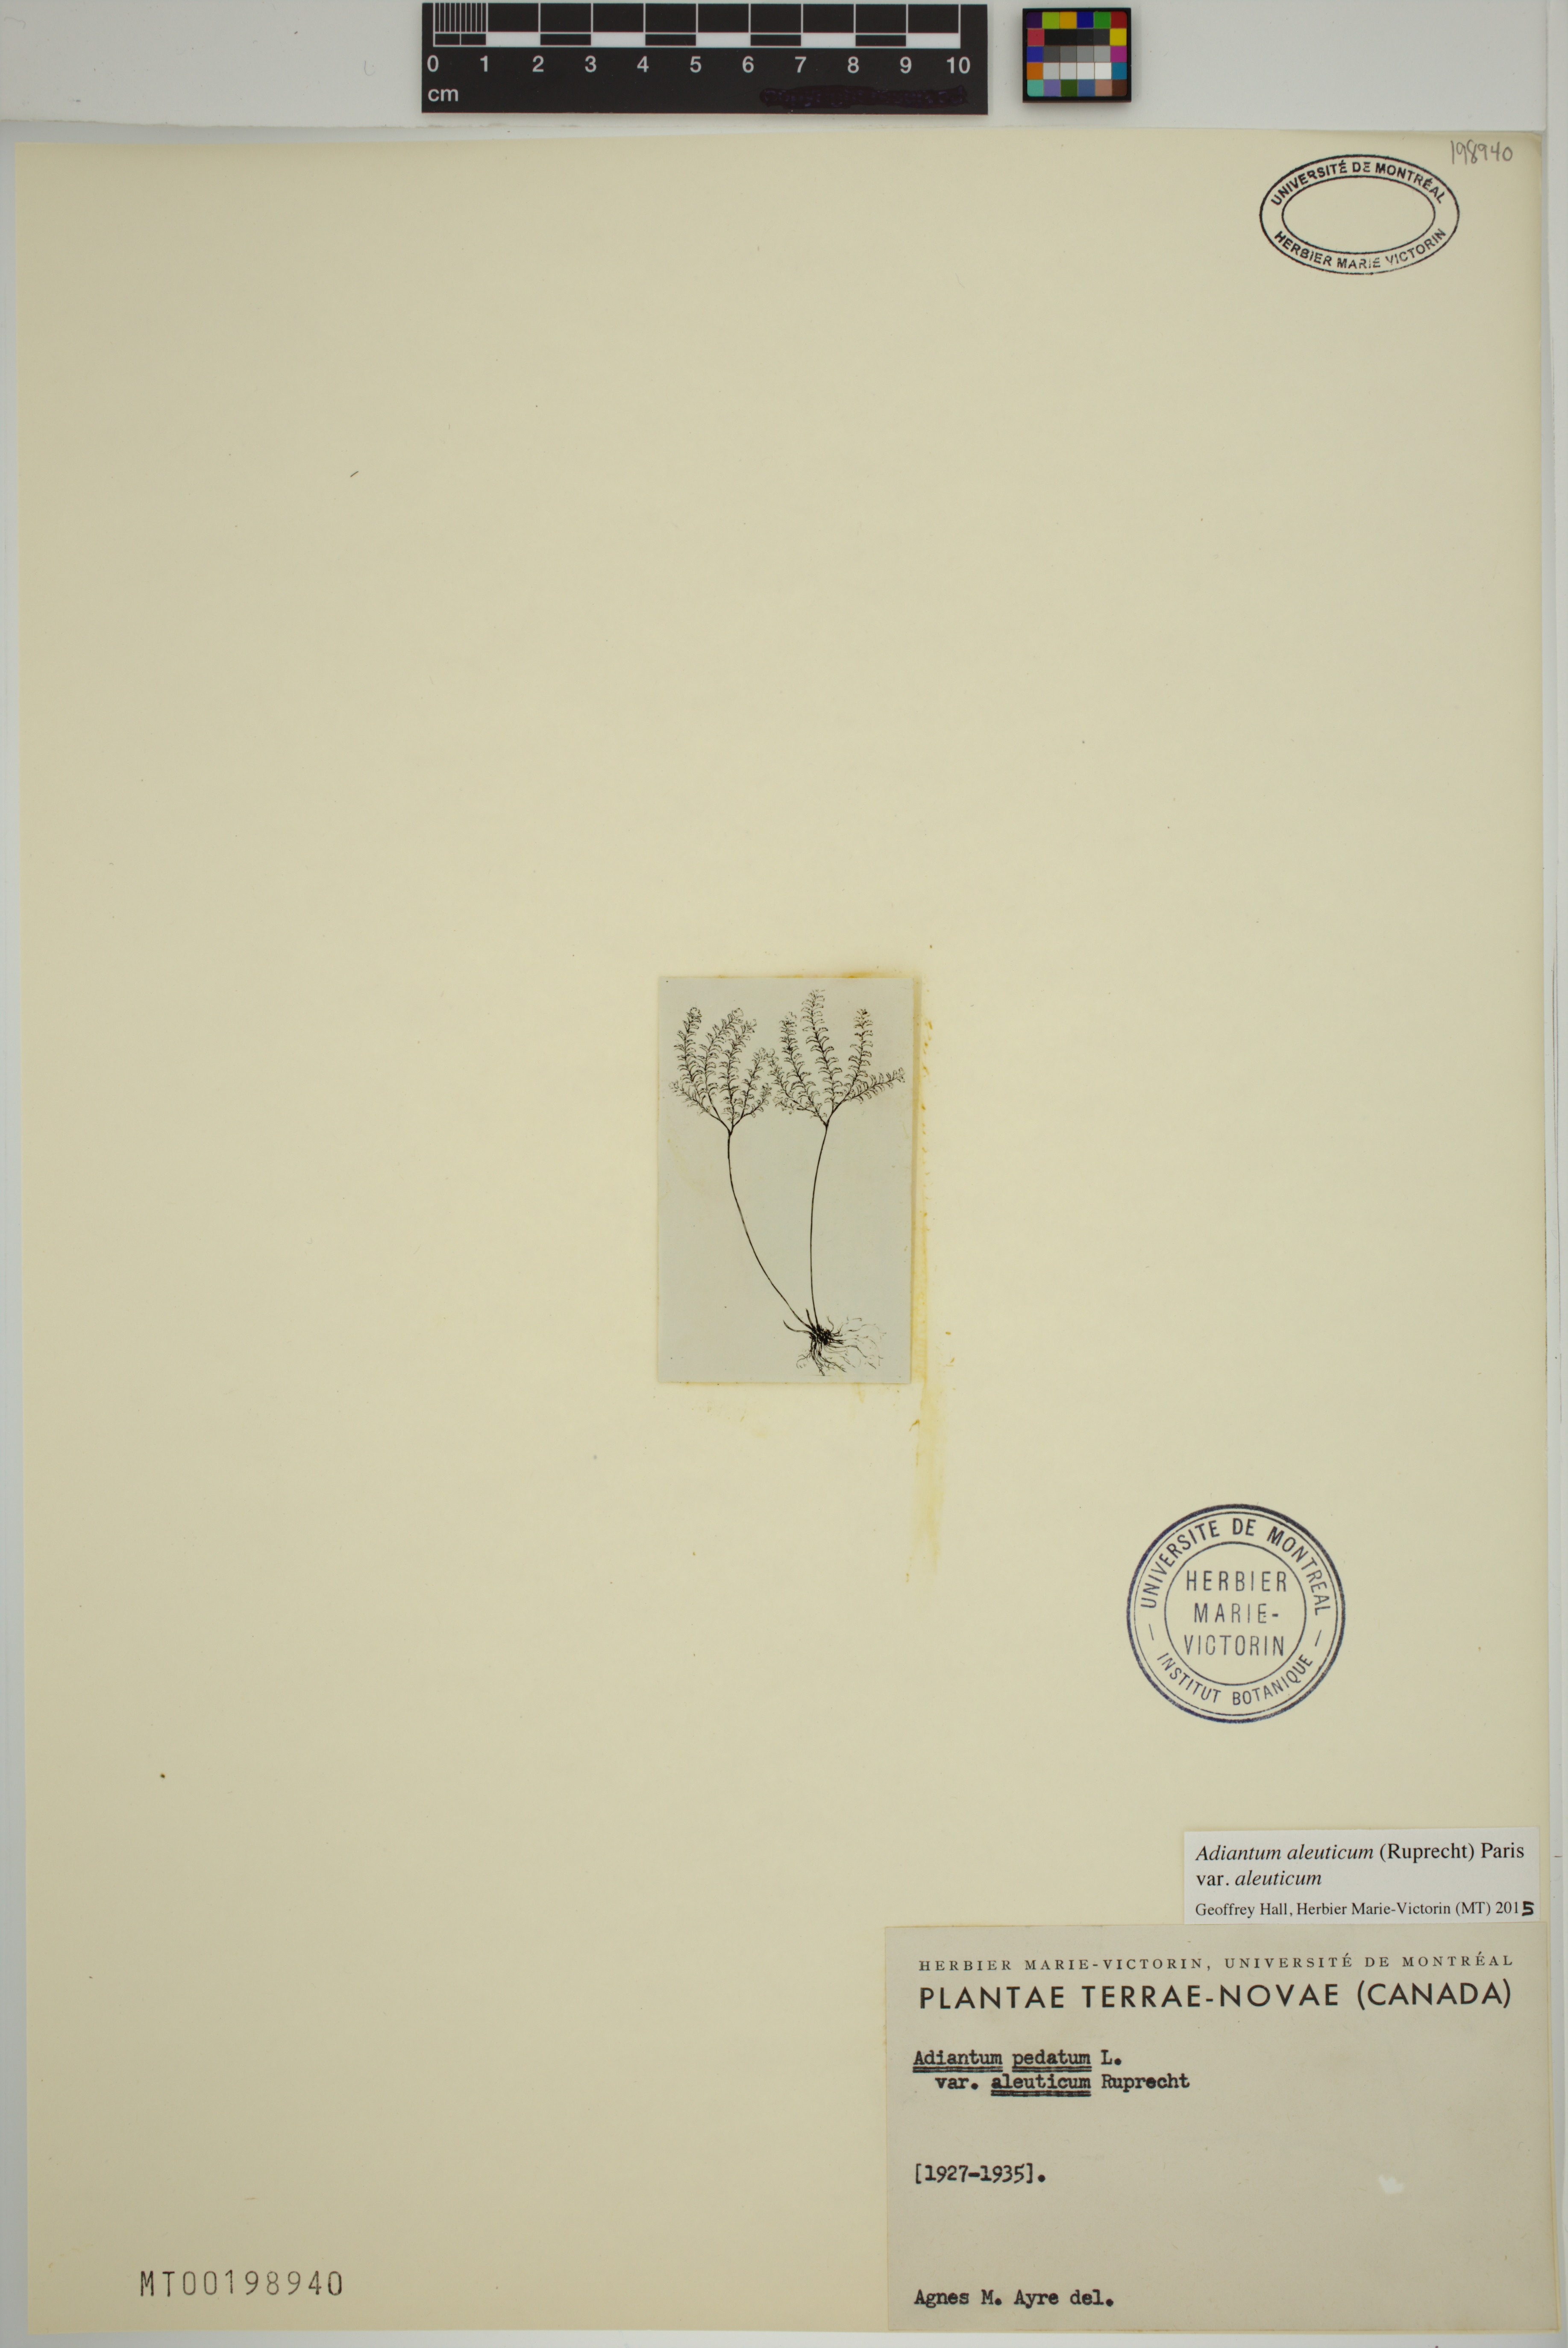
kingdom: Plantae
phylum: Tracheophyta
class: Polypodiopsida
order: Polypodiales
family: Pteridaceae
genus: Adiantum
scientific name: Adiantum aleuticum
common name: Aleutian maidenhair fern
